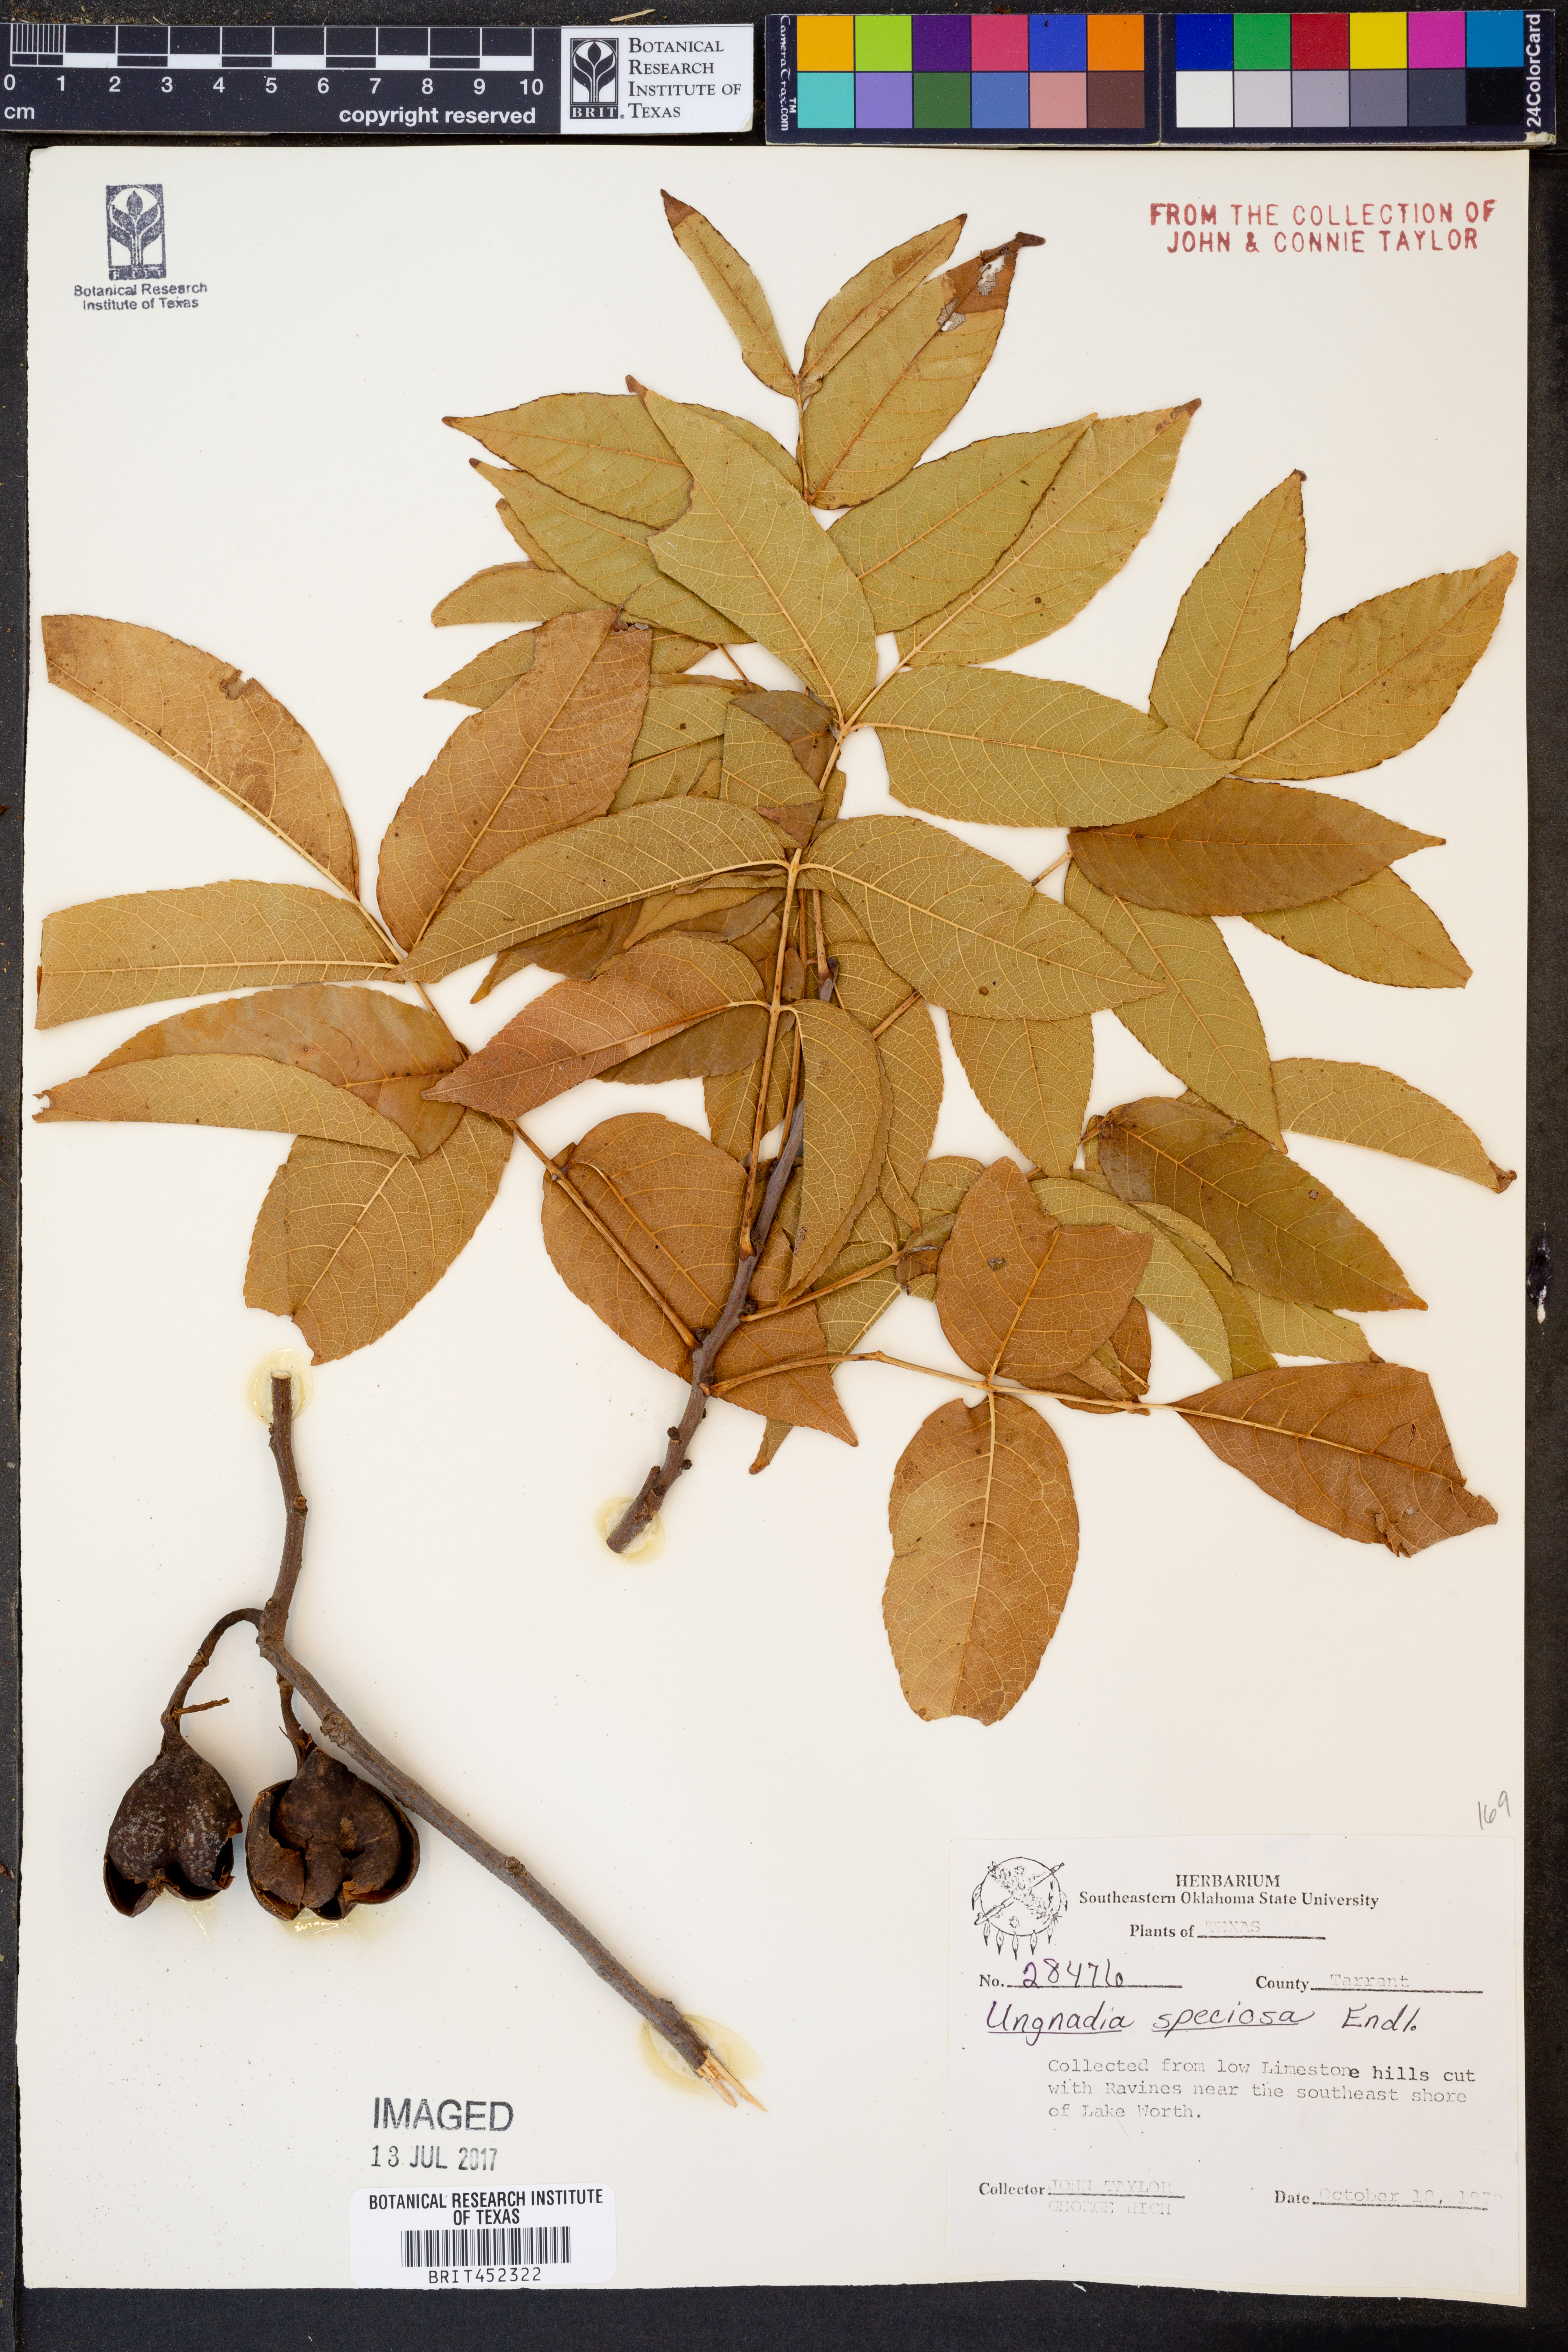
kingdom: Plantae
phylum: Tracheophyta
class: Magnoliopsida
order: Sapindales
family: Sapindaceae
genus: Ungnadia
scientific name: Ungnadia speciosa
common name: Texas-buckeye
